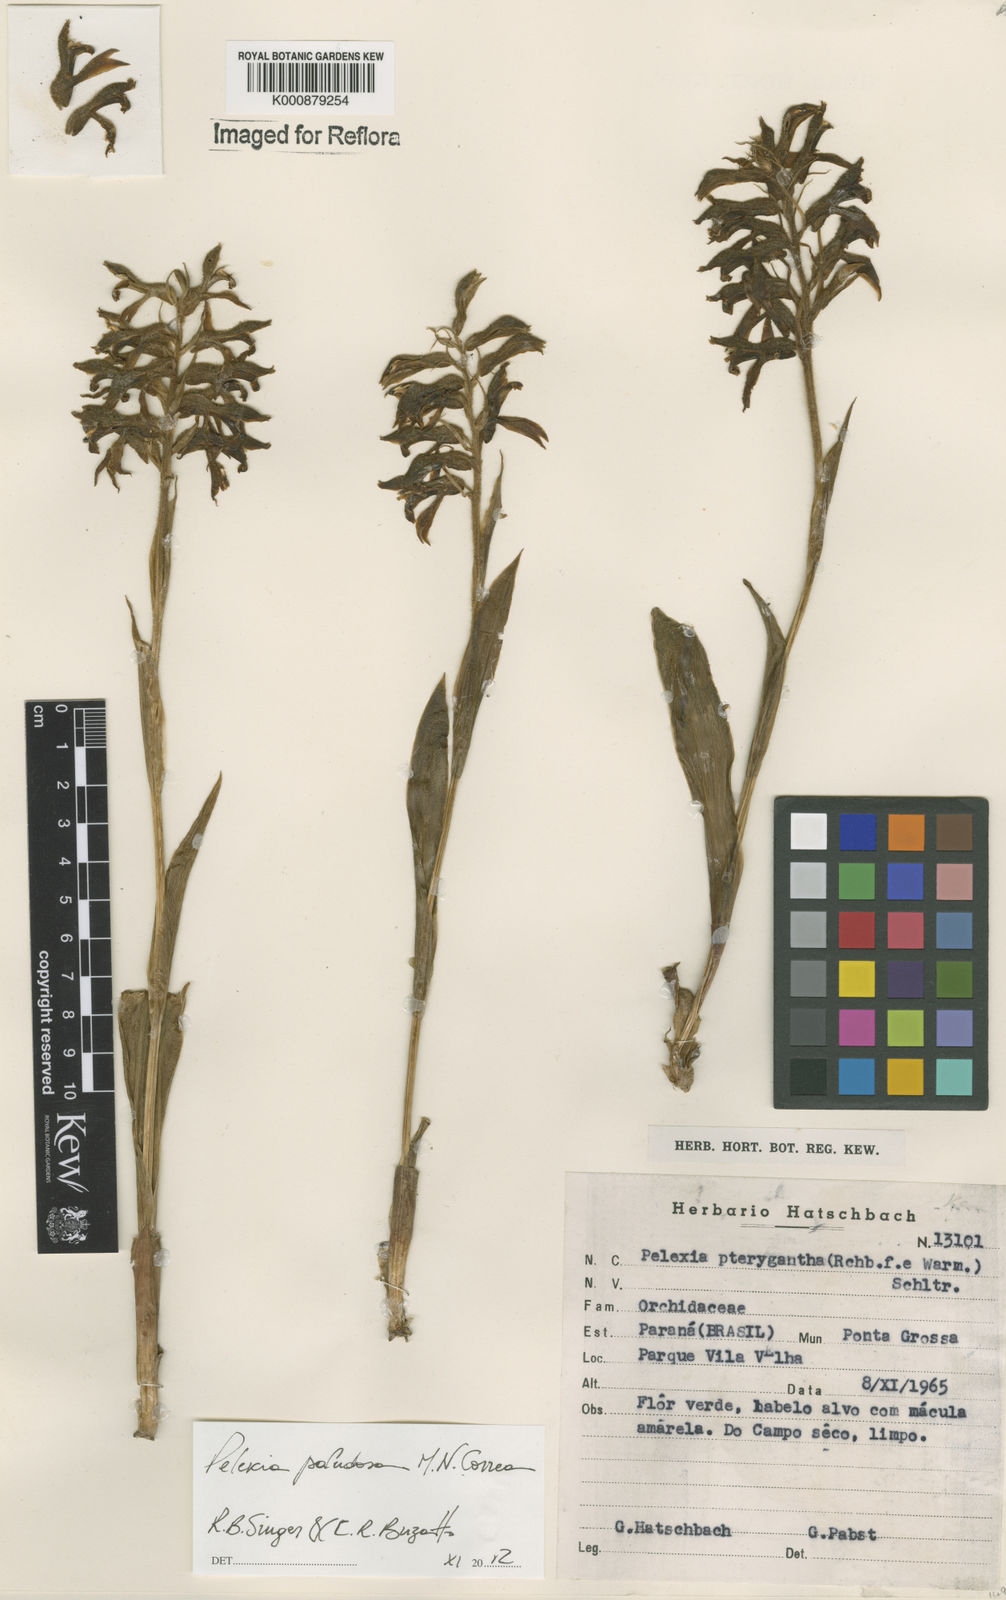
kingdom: Plantae
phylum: Tracheophyta
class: Liliopsida
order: Asparagales
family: Orchidaceae
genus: Pelexia
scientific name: Pelexia paludosa
